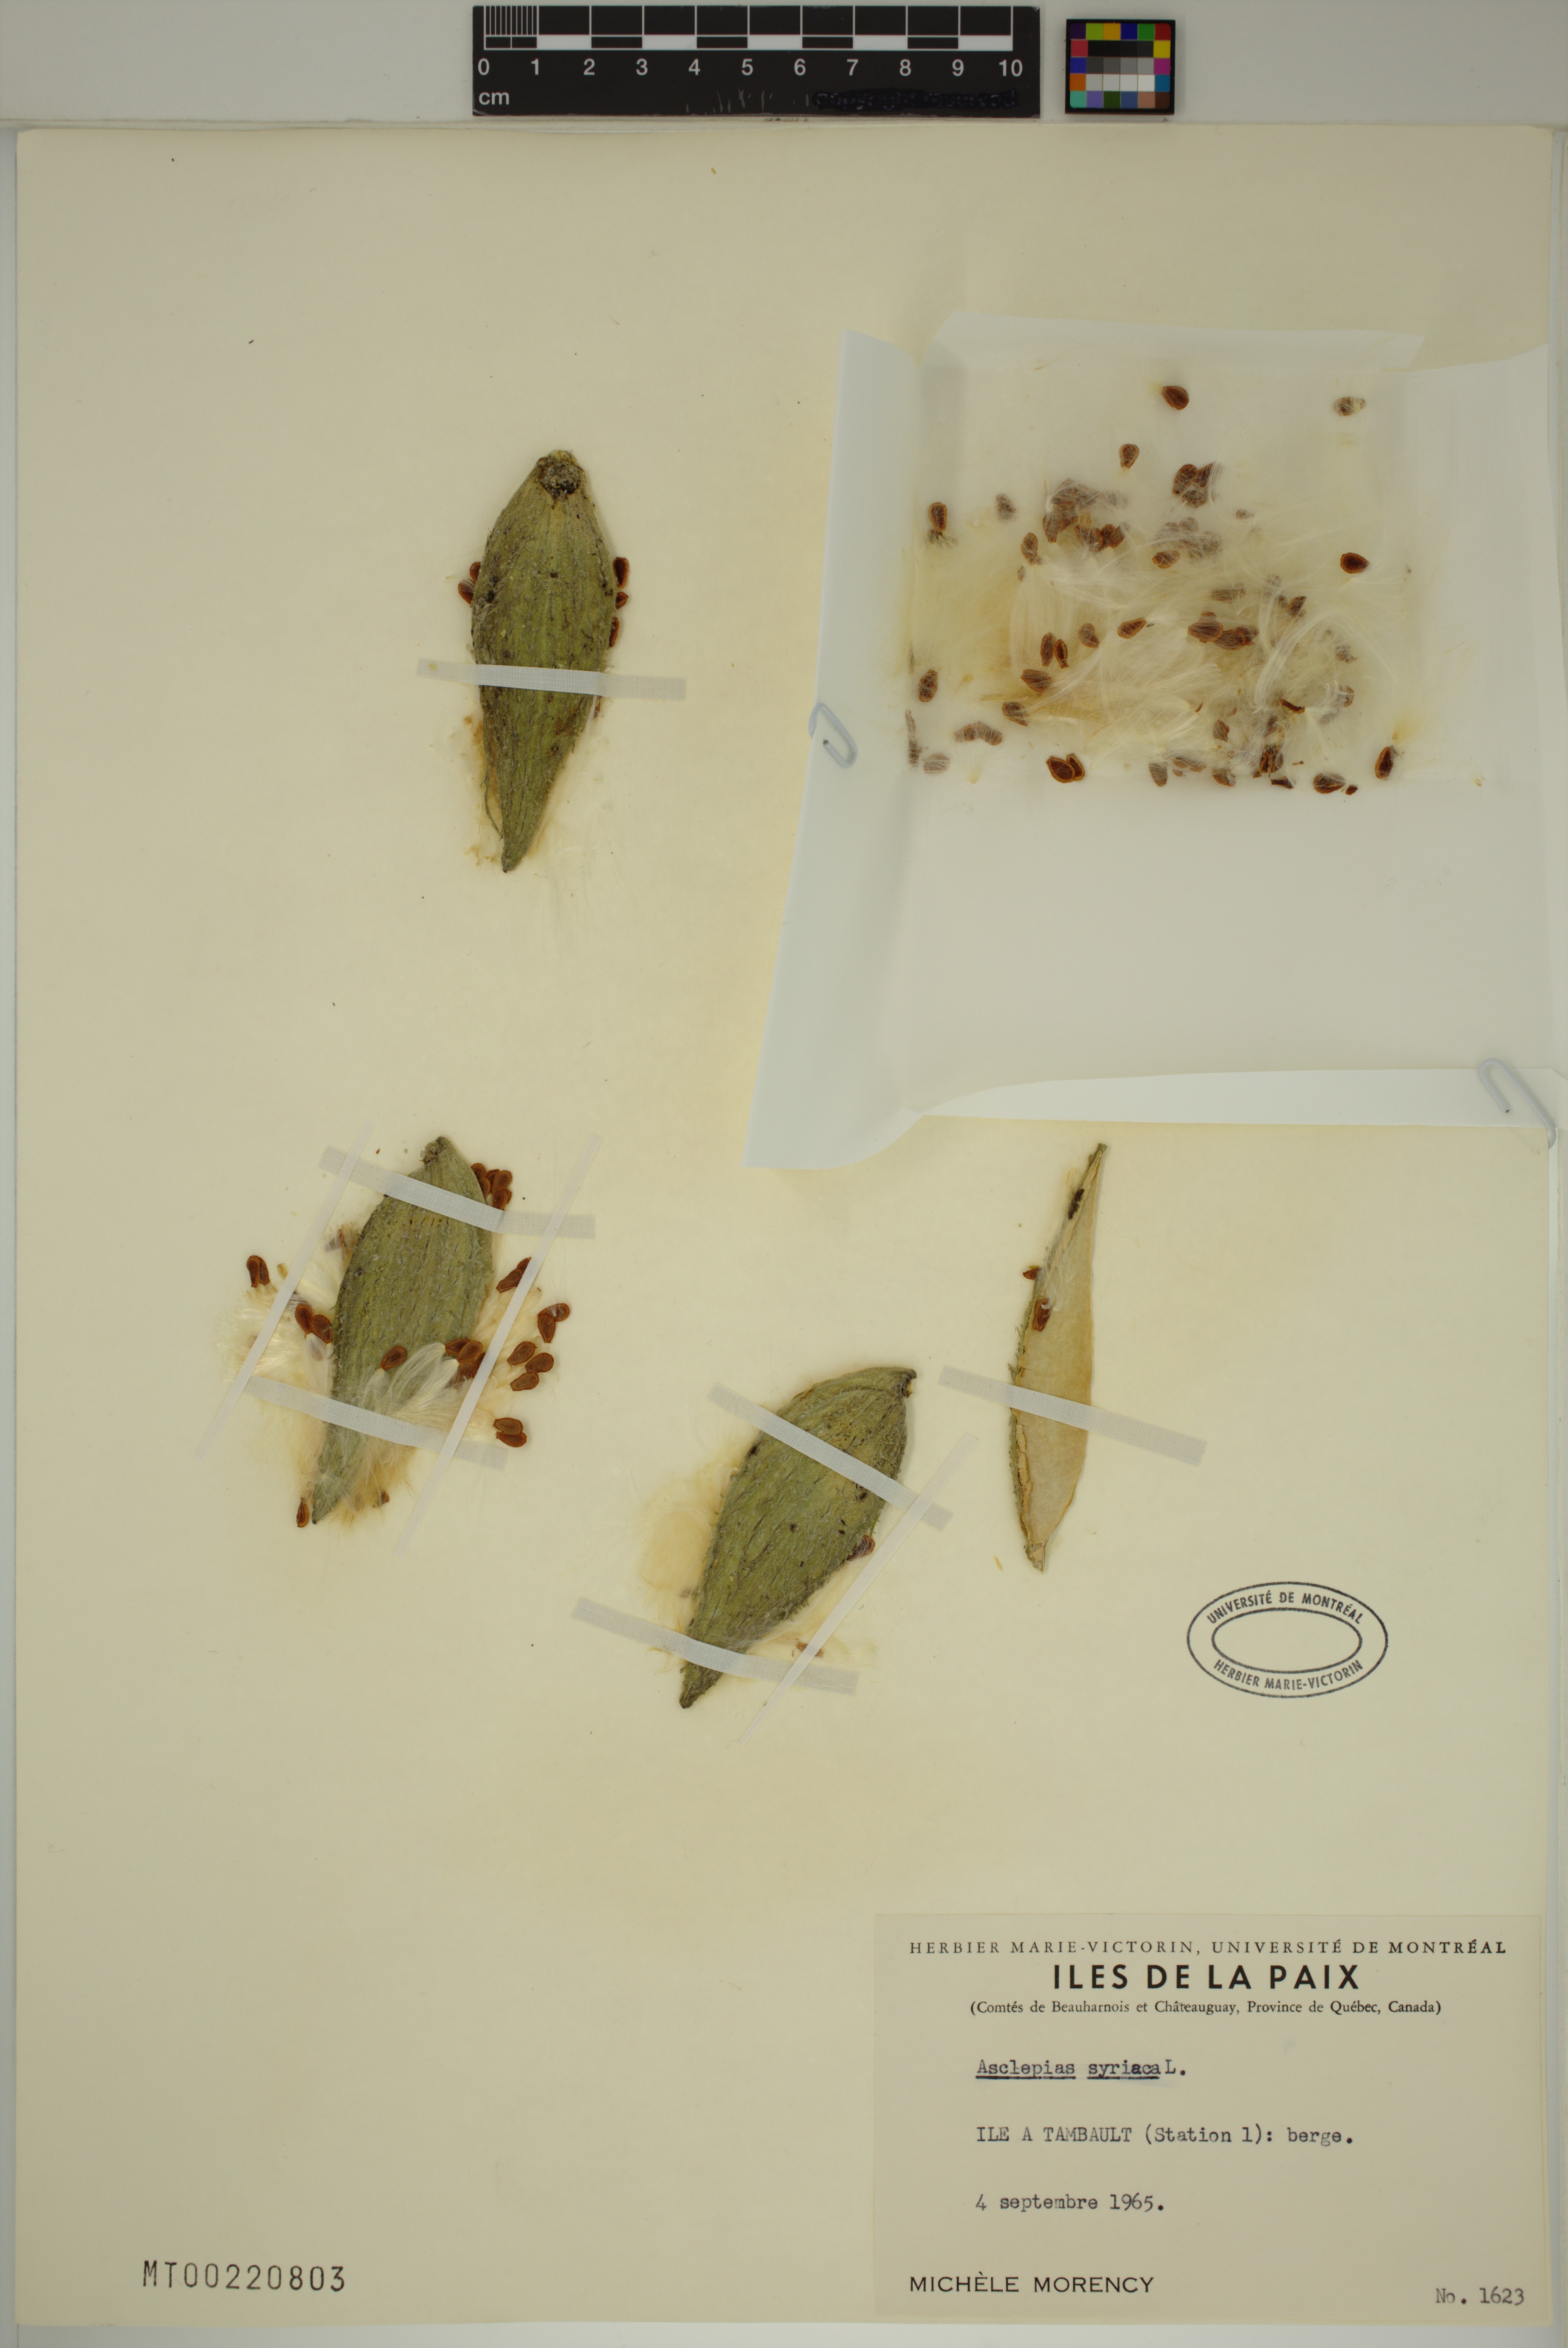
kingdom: Plantae
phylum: Tracheophyta
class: Magnoliopsida
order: Gentianales
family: Apocynaceae
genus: Asclepias
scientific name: Asclepias syriaca
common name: Common milkweed
